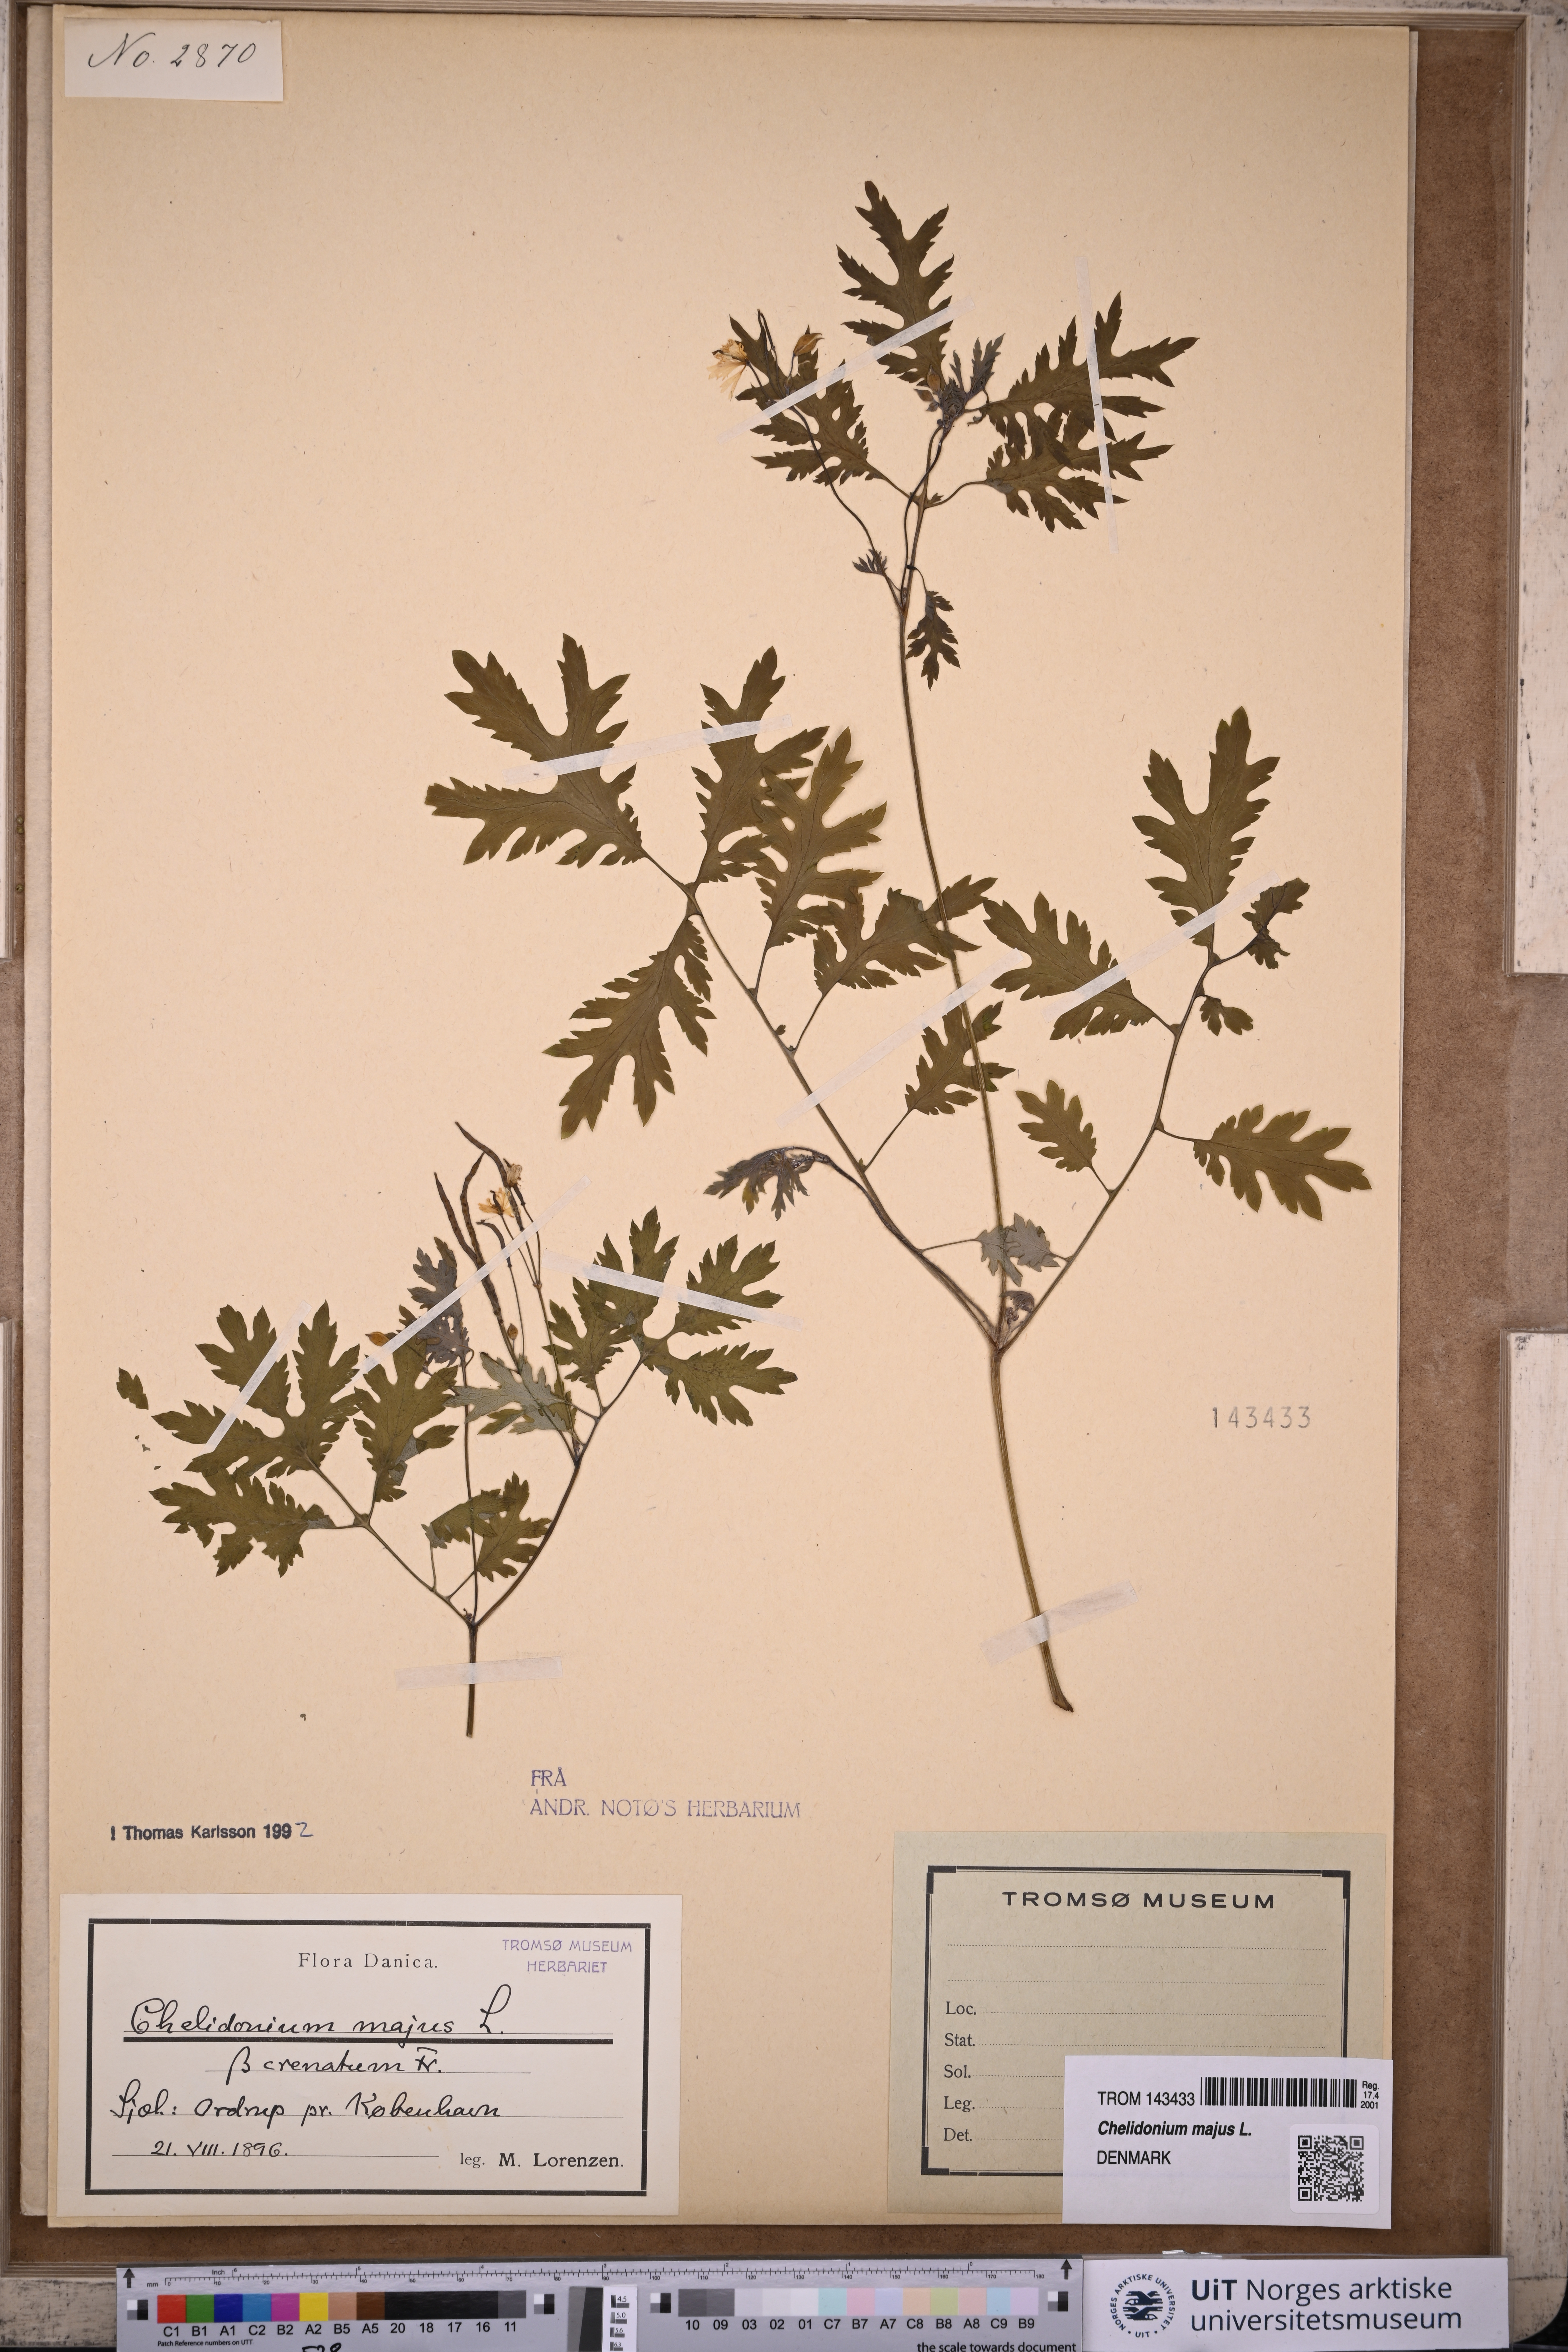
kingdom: Plantae
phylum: Tracheophyta
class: Magnoliopsida
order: Ranunculales
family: Papaveraceae
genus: Chelidonium
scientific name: Chelidonium majus
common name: Greater celandine
